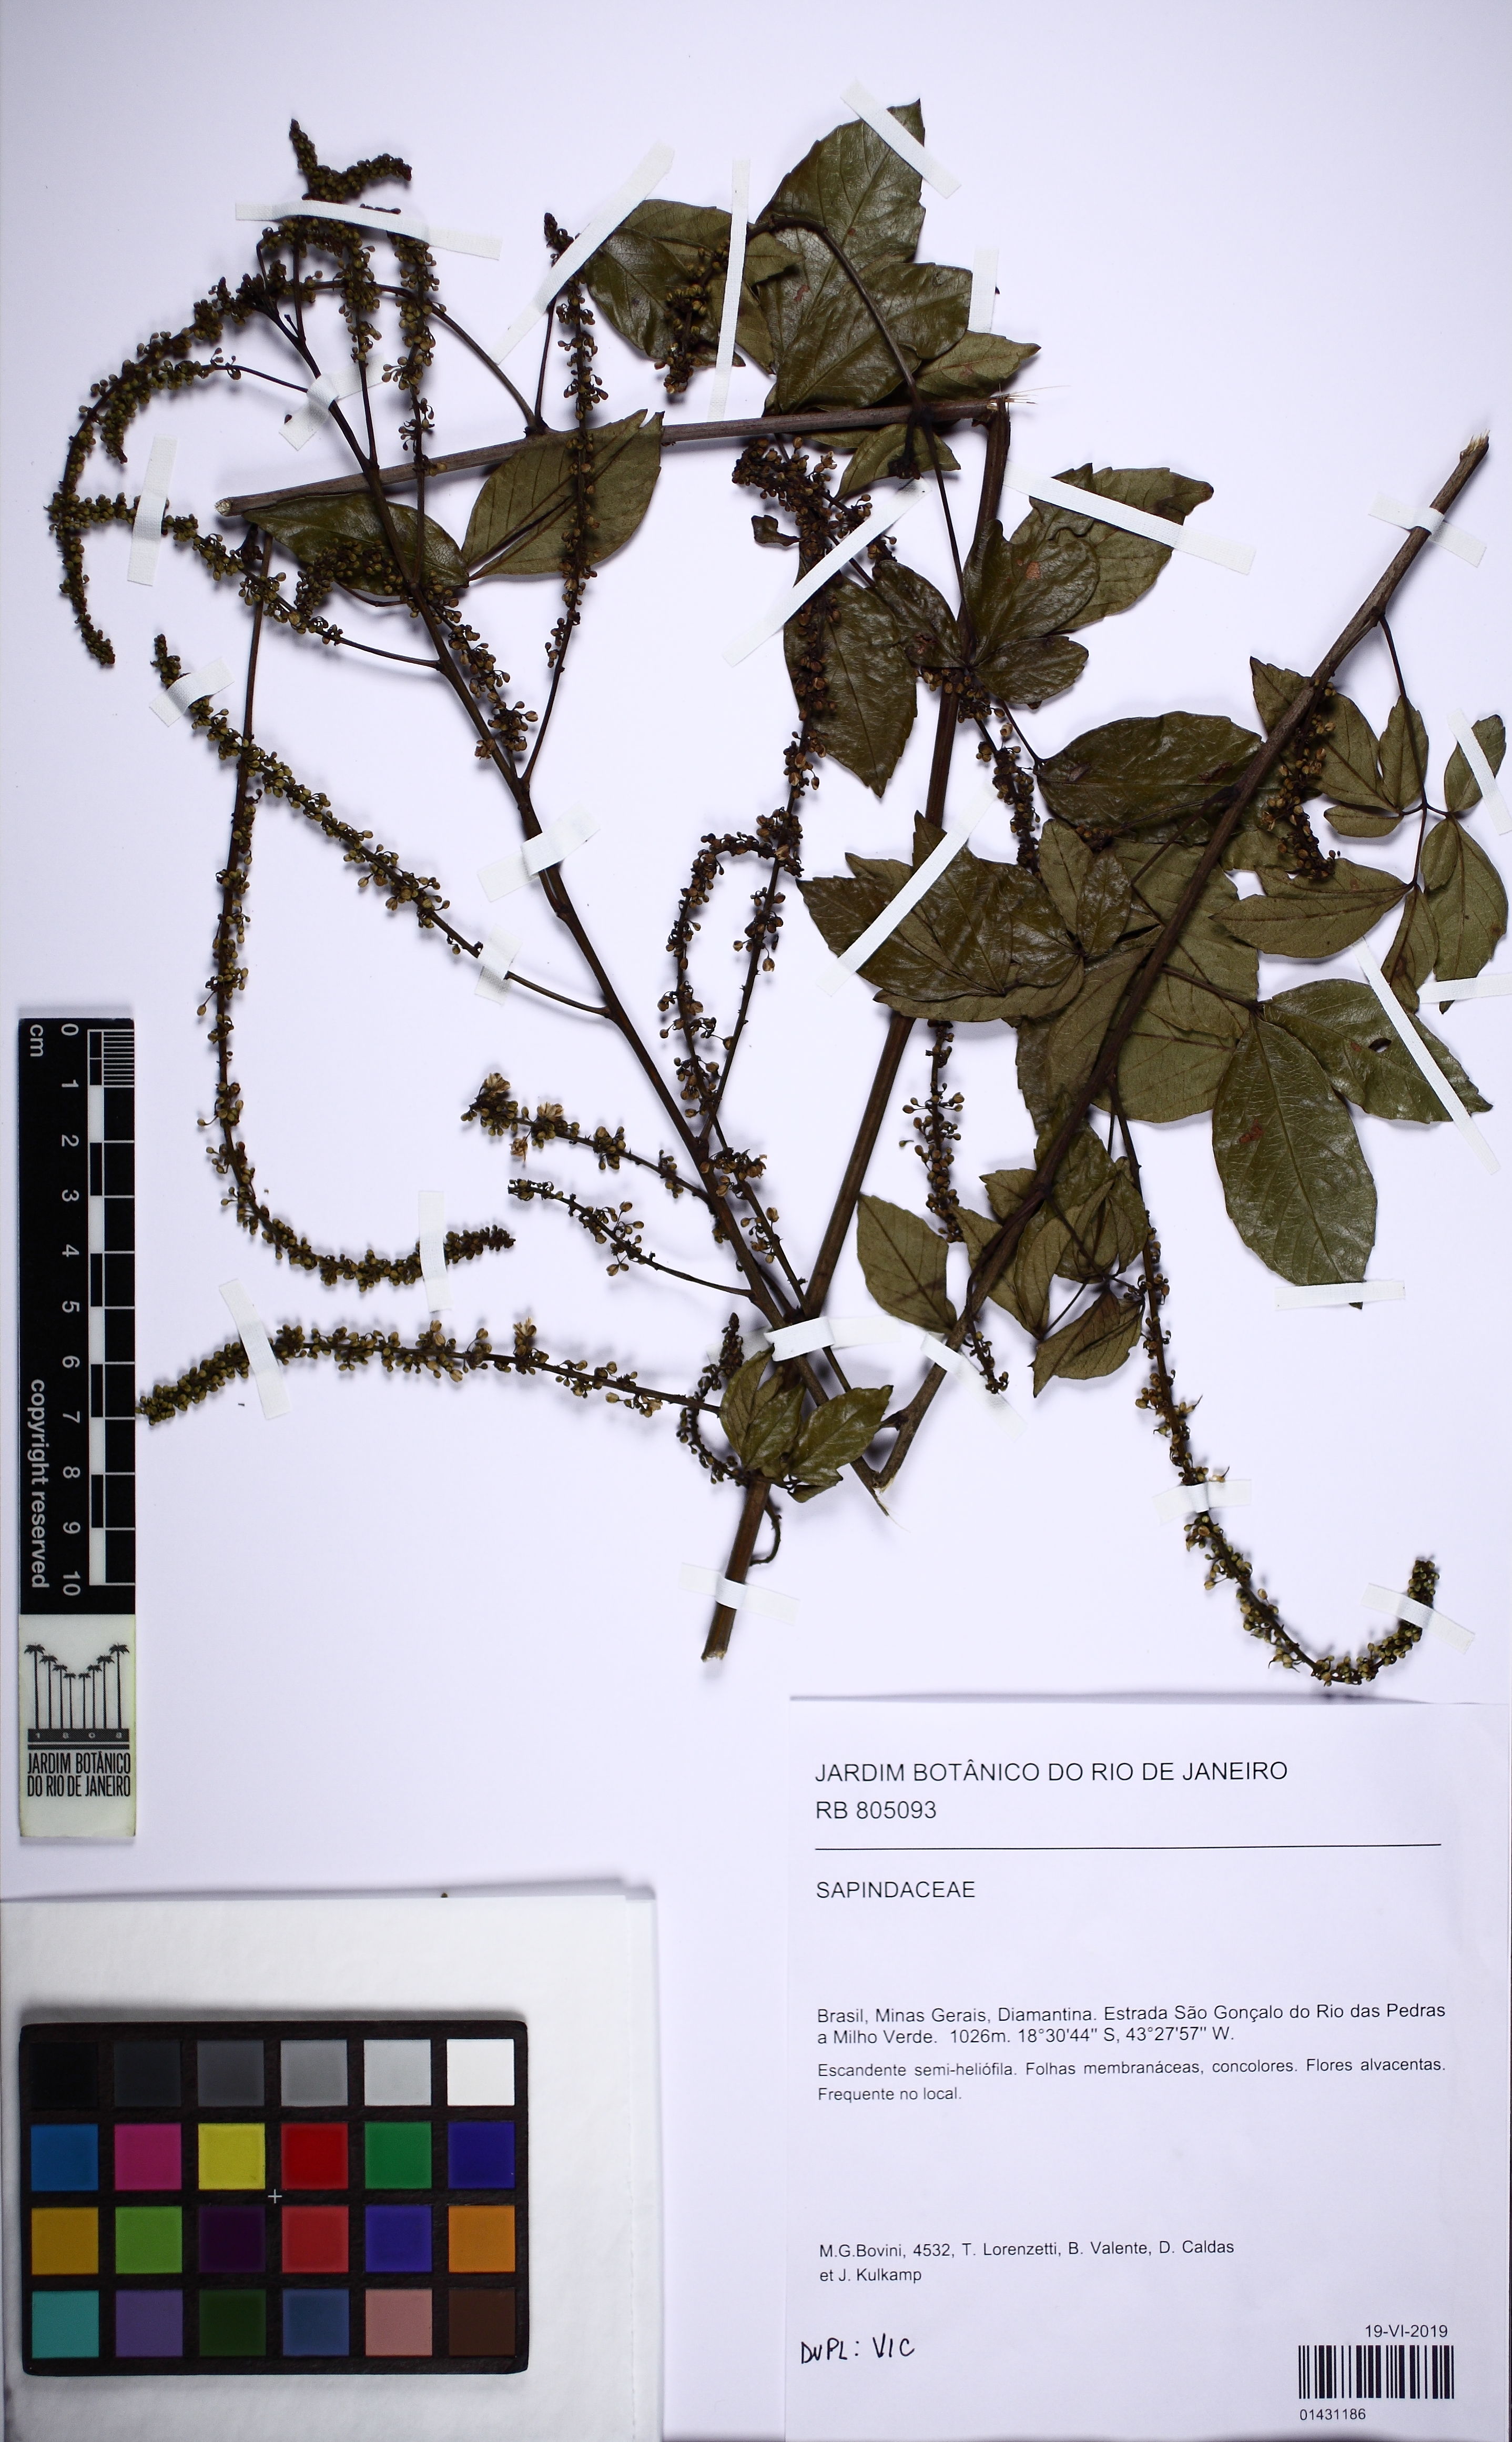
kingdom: Plantae
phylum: Tracheophyta
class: Magnoliopsida
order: Sapindales
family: Sapindaceae
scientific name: Sapindaceae
